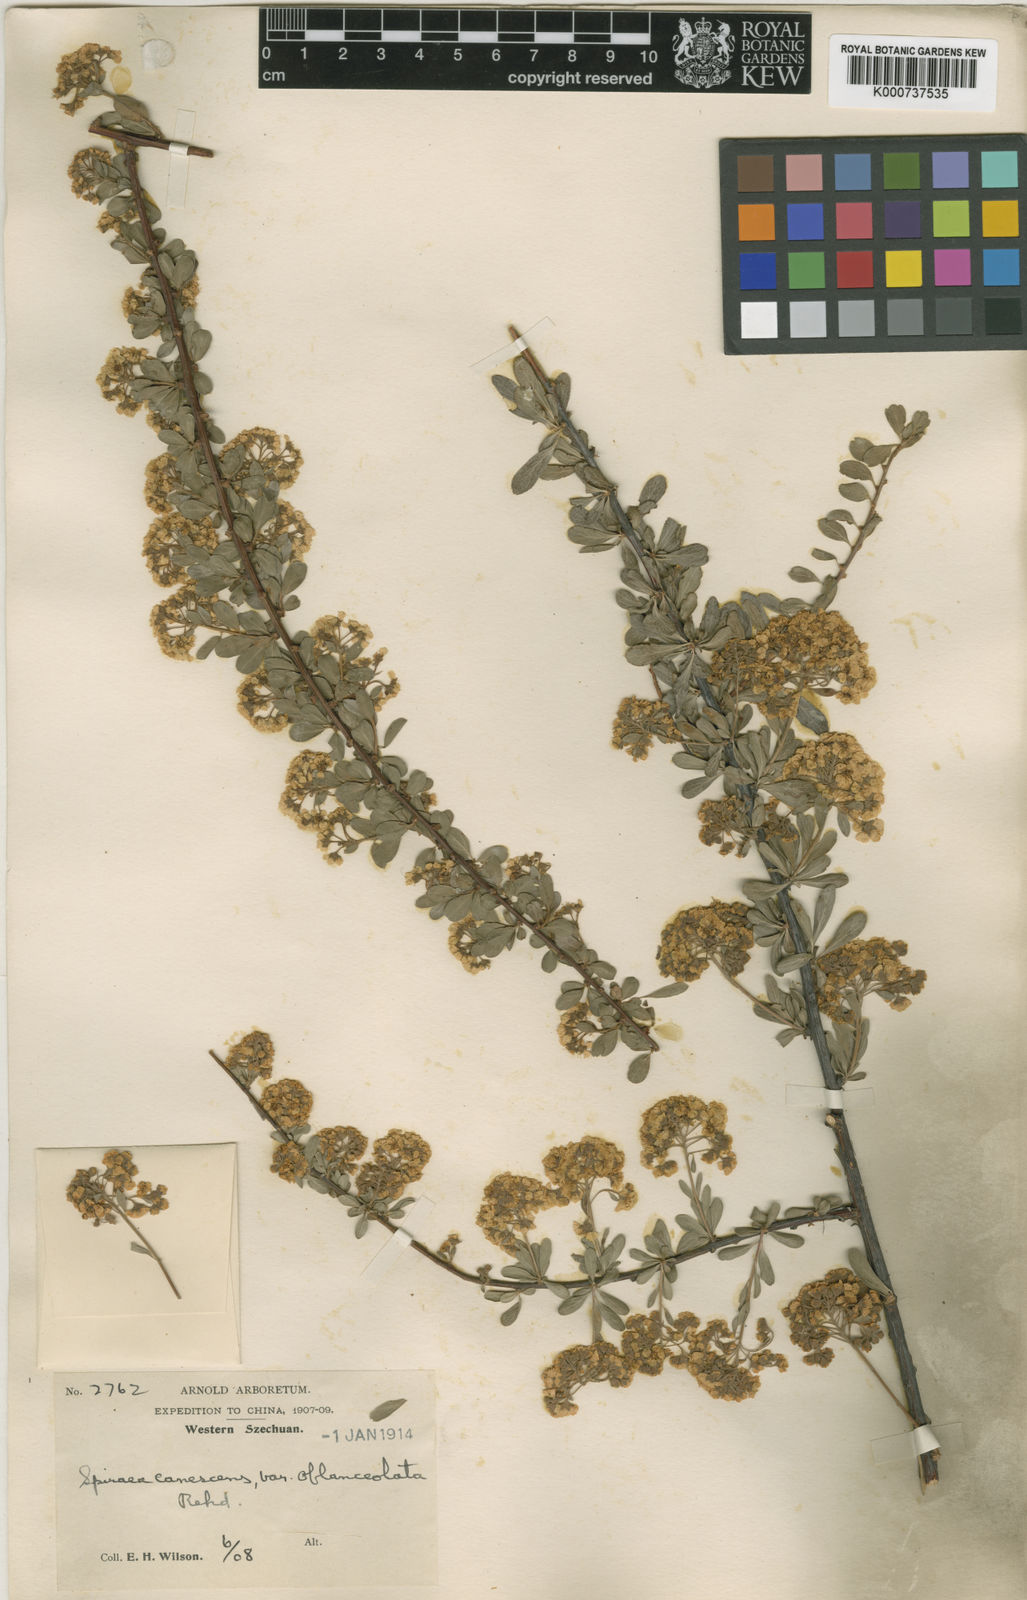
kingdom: Plantae
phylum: Tracheophyta
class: Magnoliopsida
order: Rosales
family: Rosaceae
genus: Spiraea
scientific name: Spiraea canescens
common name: Himalayan spiraea
